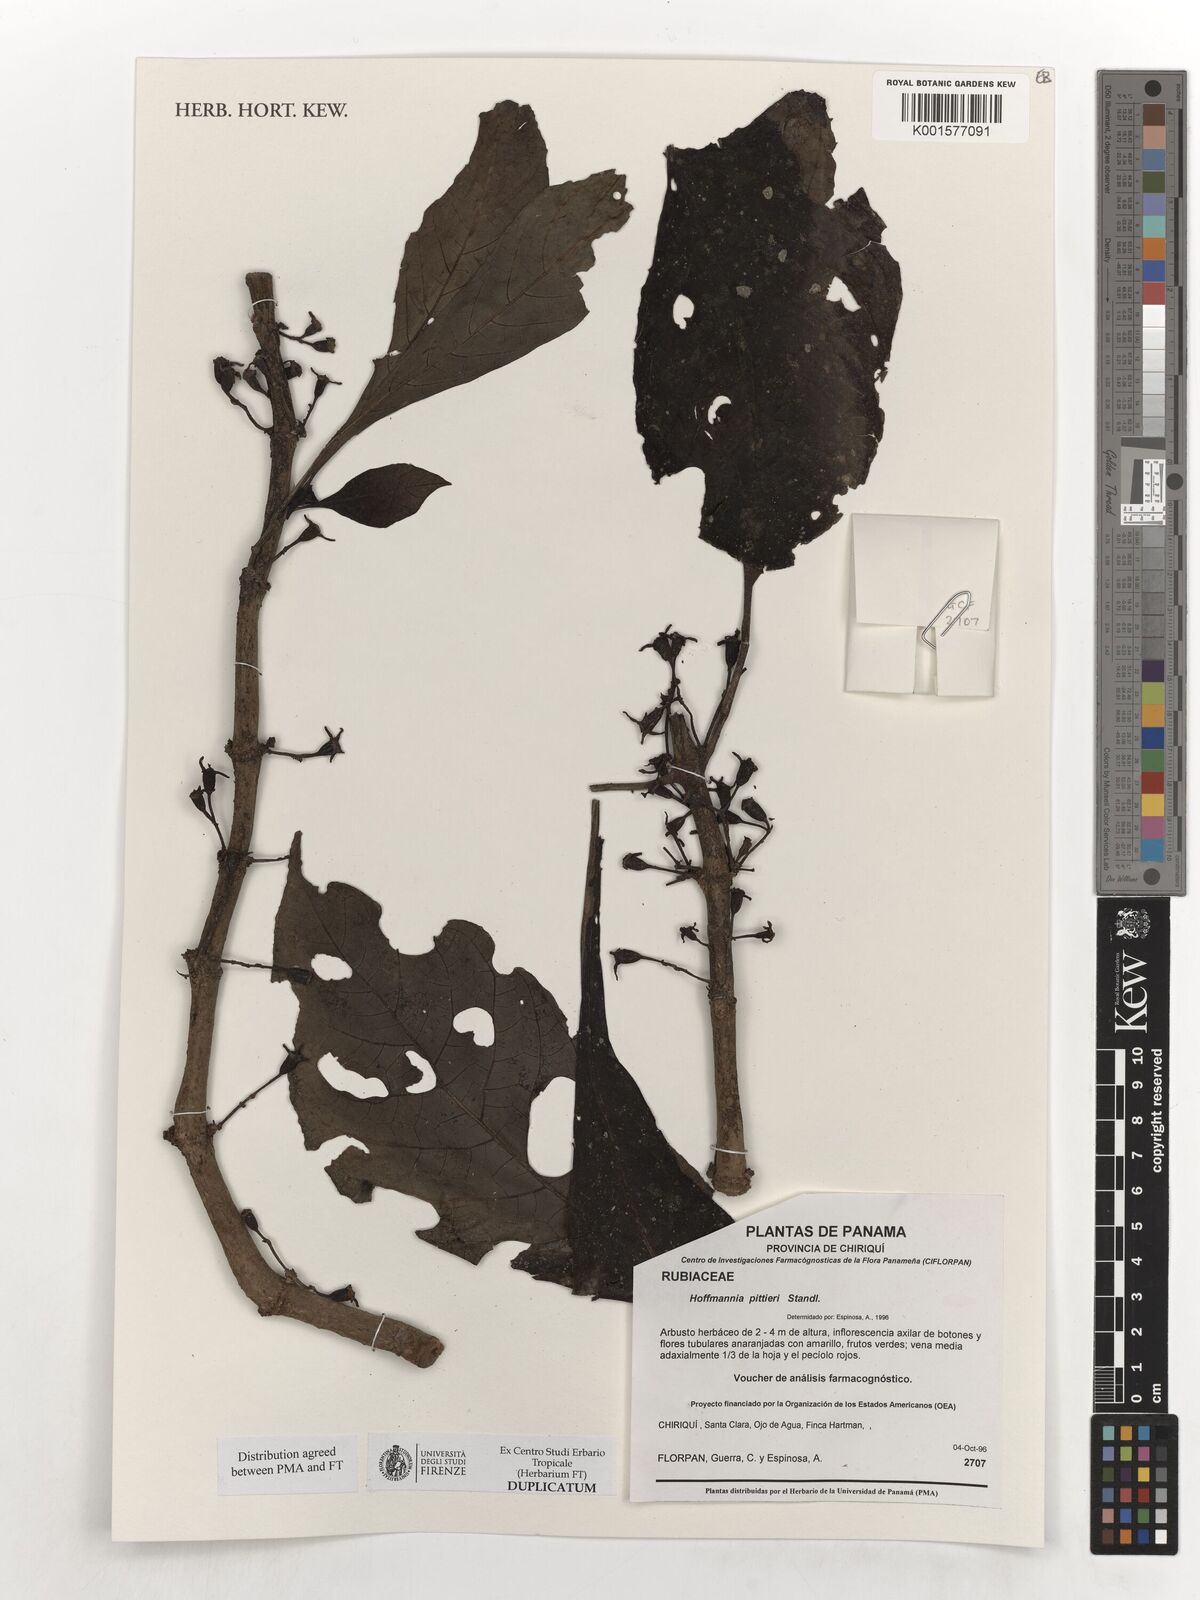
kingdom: Plantae
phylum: Tracheophyta
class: Magnoliopsida
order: Gentianales
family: Rubiaceae
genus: Hoffmannia
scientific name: Hoffmannia pittieri
